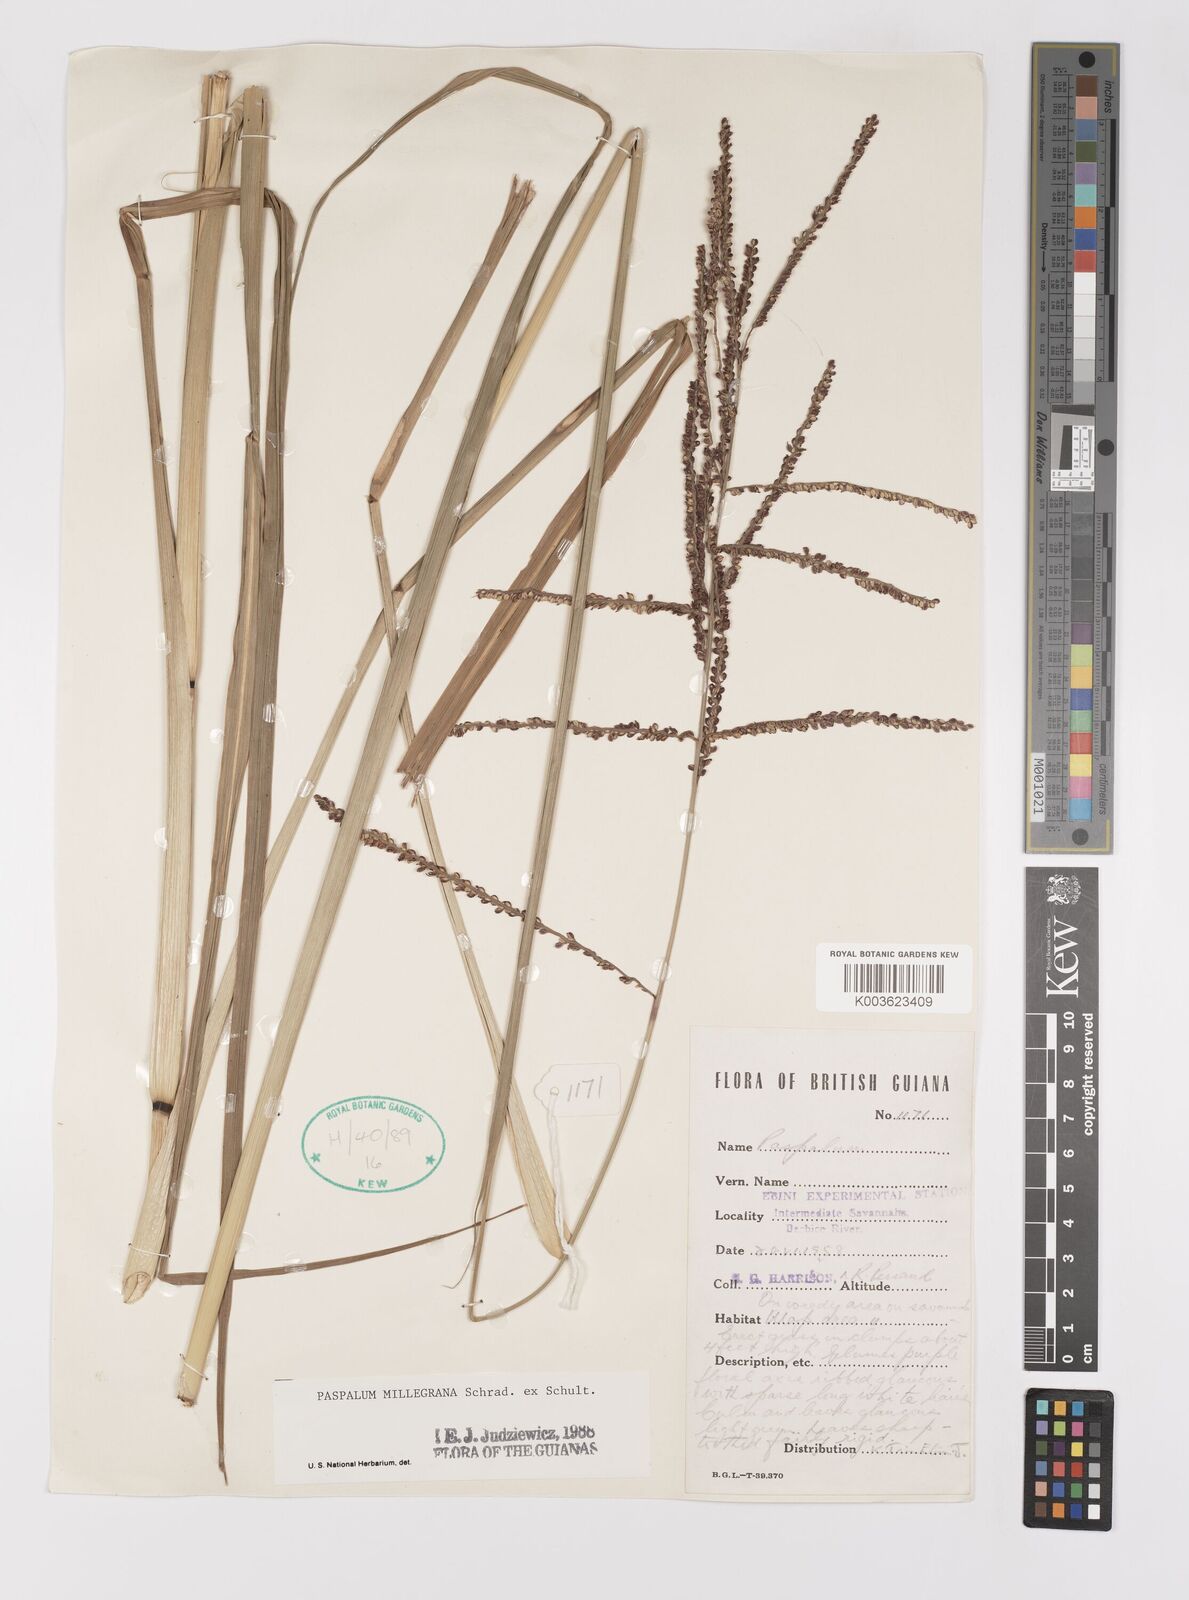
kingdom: Plantae
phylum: Tracheophyta
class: Liliopsida
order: Poales
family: Poaceae
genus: Paspalum
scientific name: Paspalum millegranum
